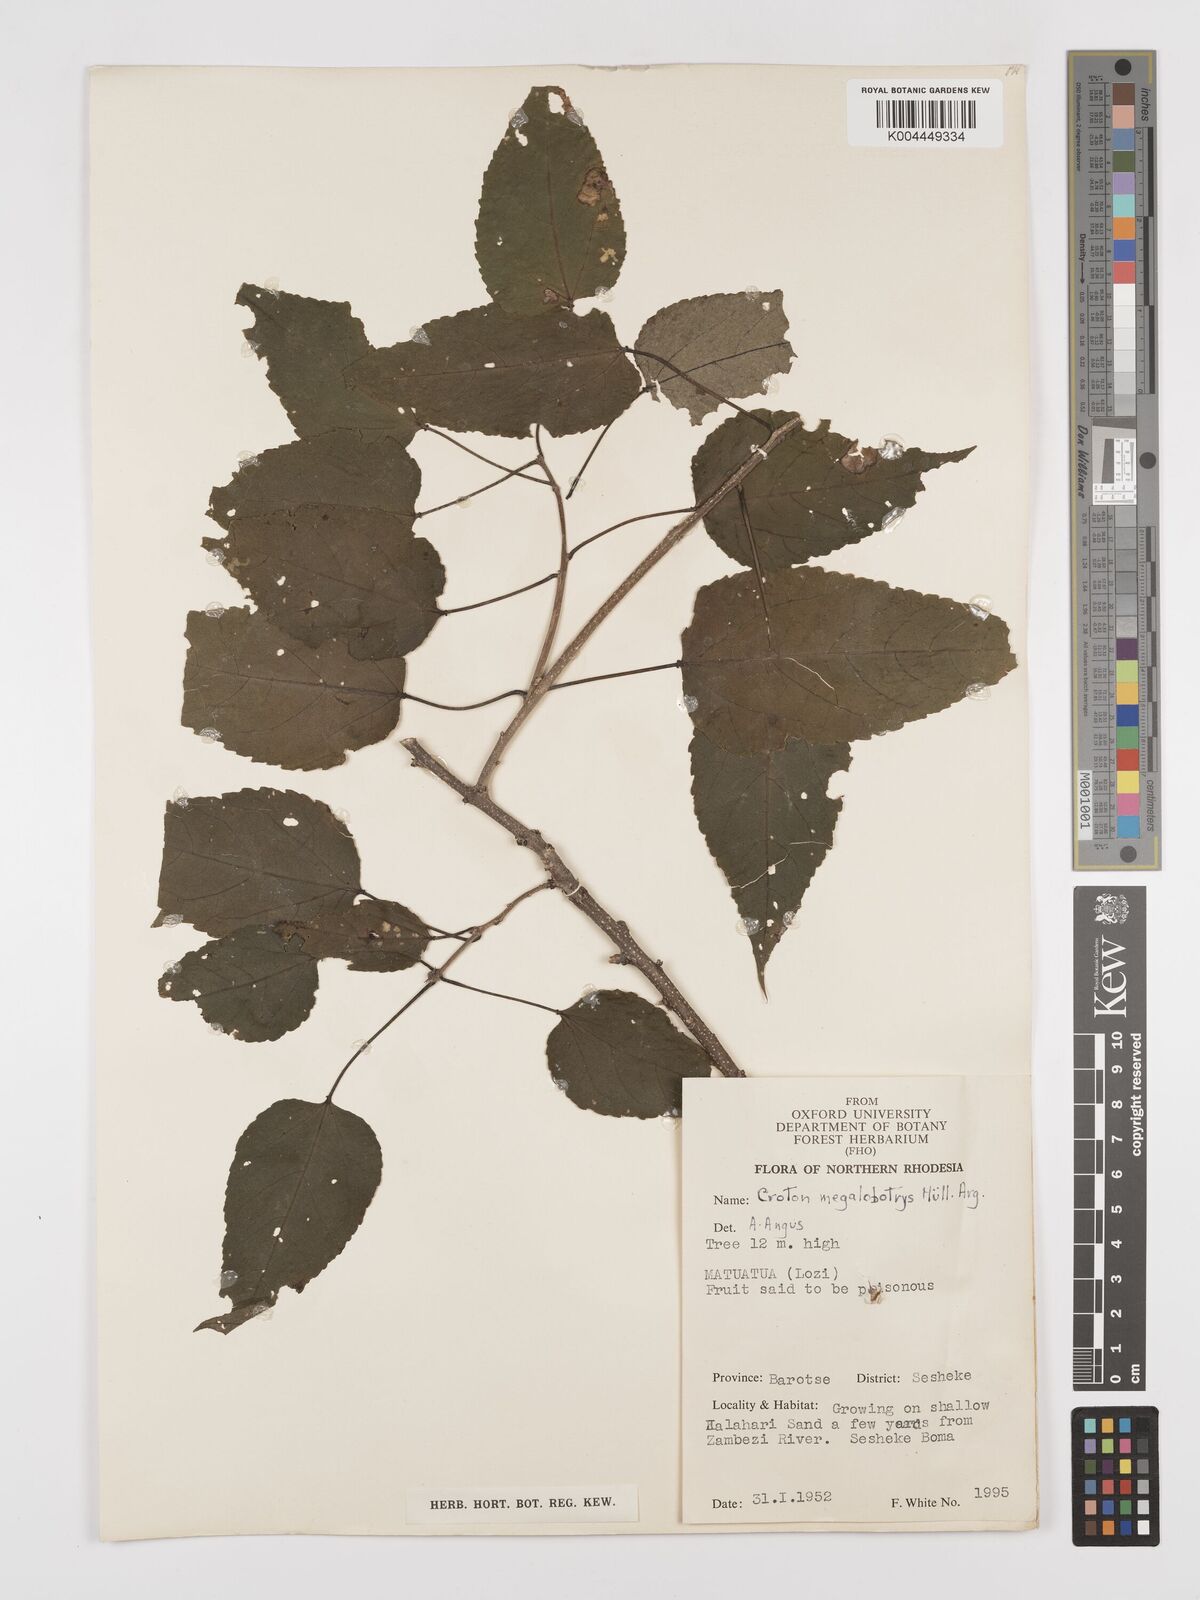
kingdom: Plantae
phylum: Tracheophyta
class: Magnoliopsida
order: Malpighiales
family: Euphorbiaceae
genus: Croton
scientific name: Croton megalobotrys
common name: Large fever berry
